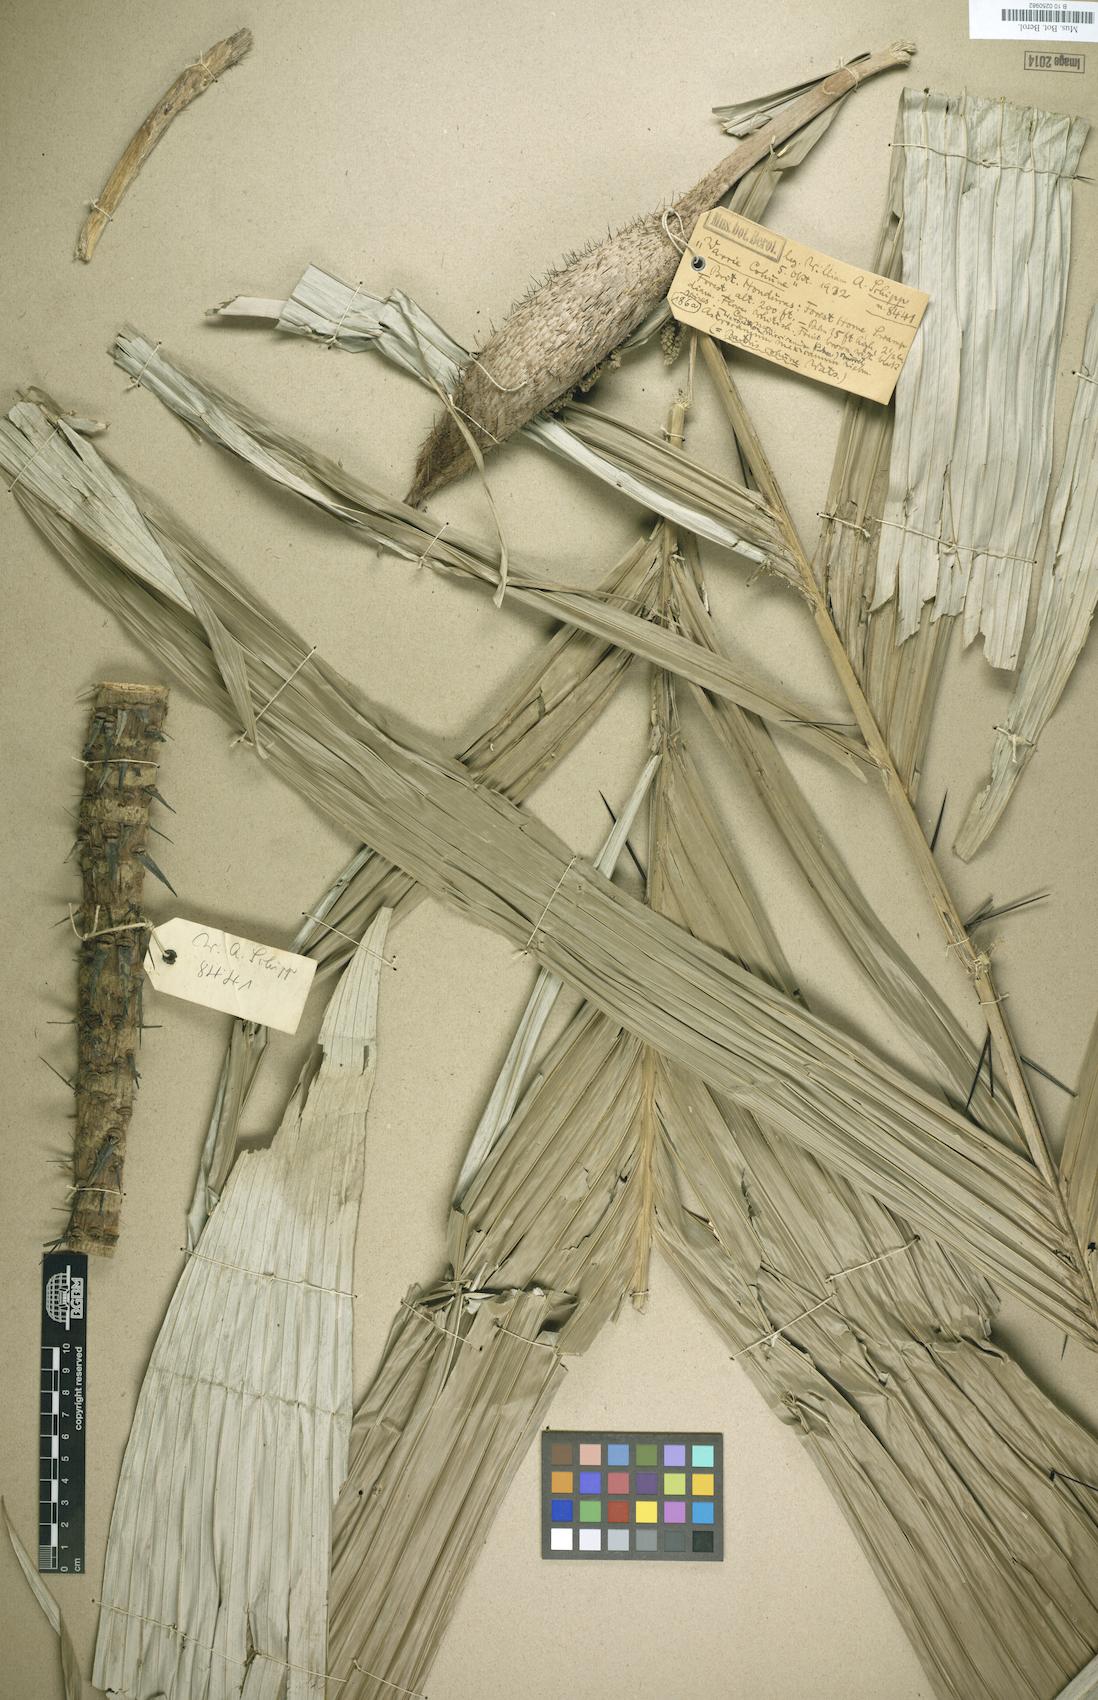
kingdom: Plantae
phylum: Tracheophyta
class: Liliopsida
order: Arecales
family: Arecaceae
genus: Astrocaryum
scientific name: Astrocaryum mexicana
